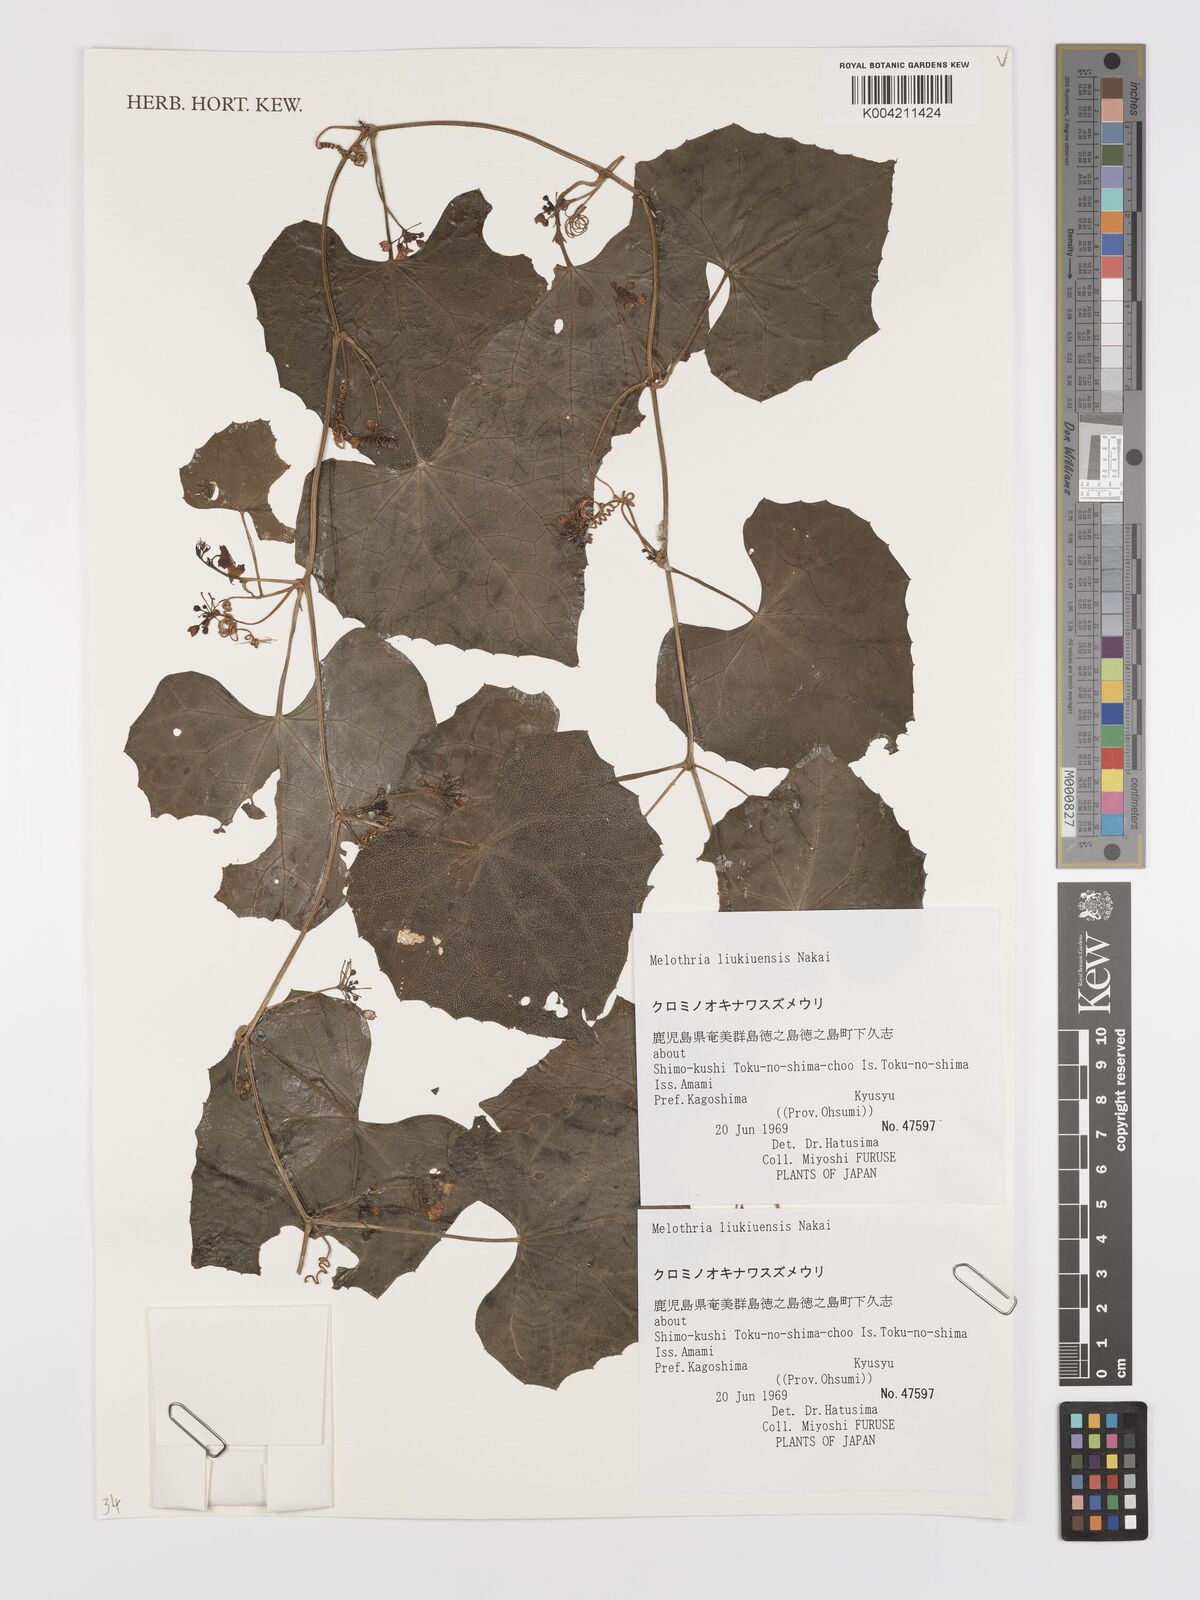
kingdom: Plantae
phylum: Tracheophyta
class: Magnoliopsida
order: Cucurbitales
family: Cucurbitaceae
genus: Zehneria
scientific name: Zehneria liukiuensis
